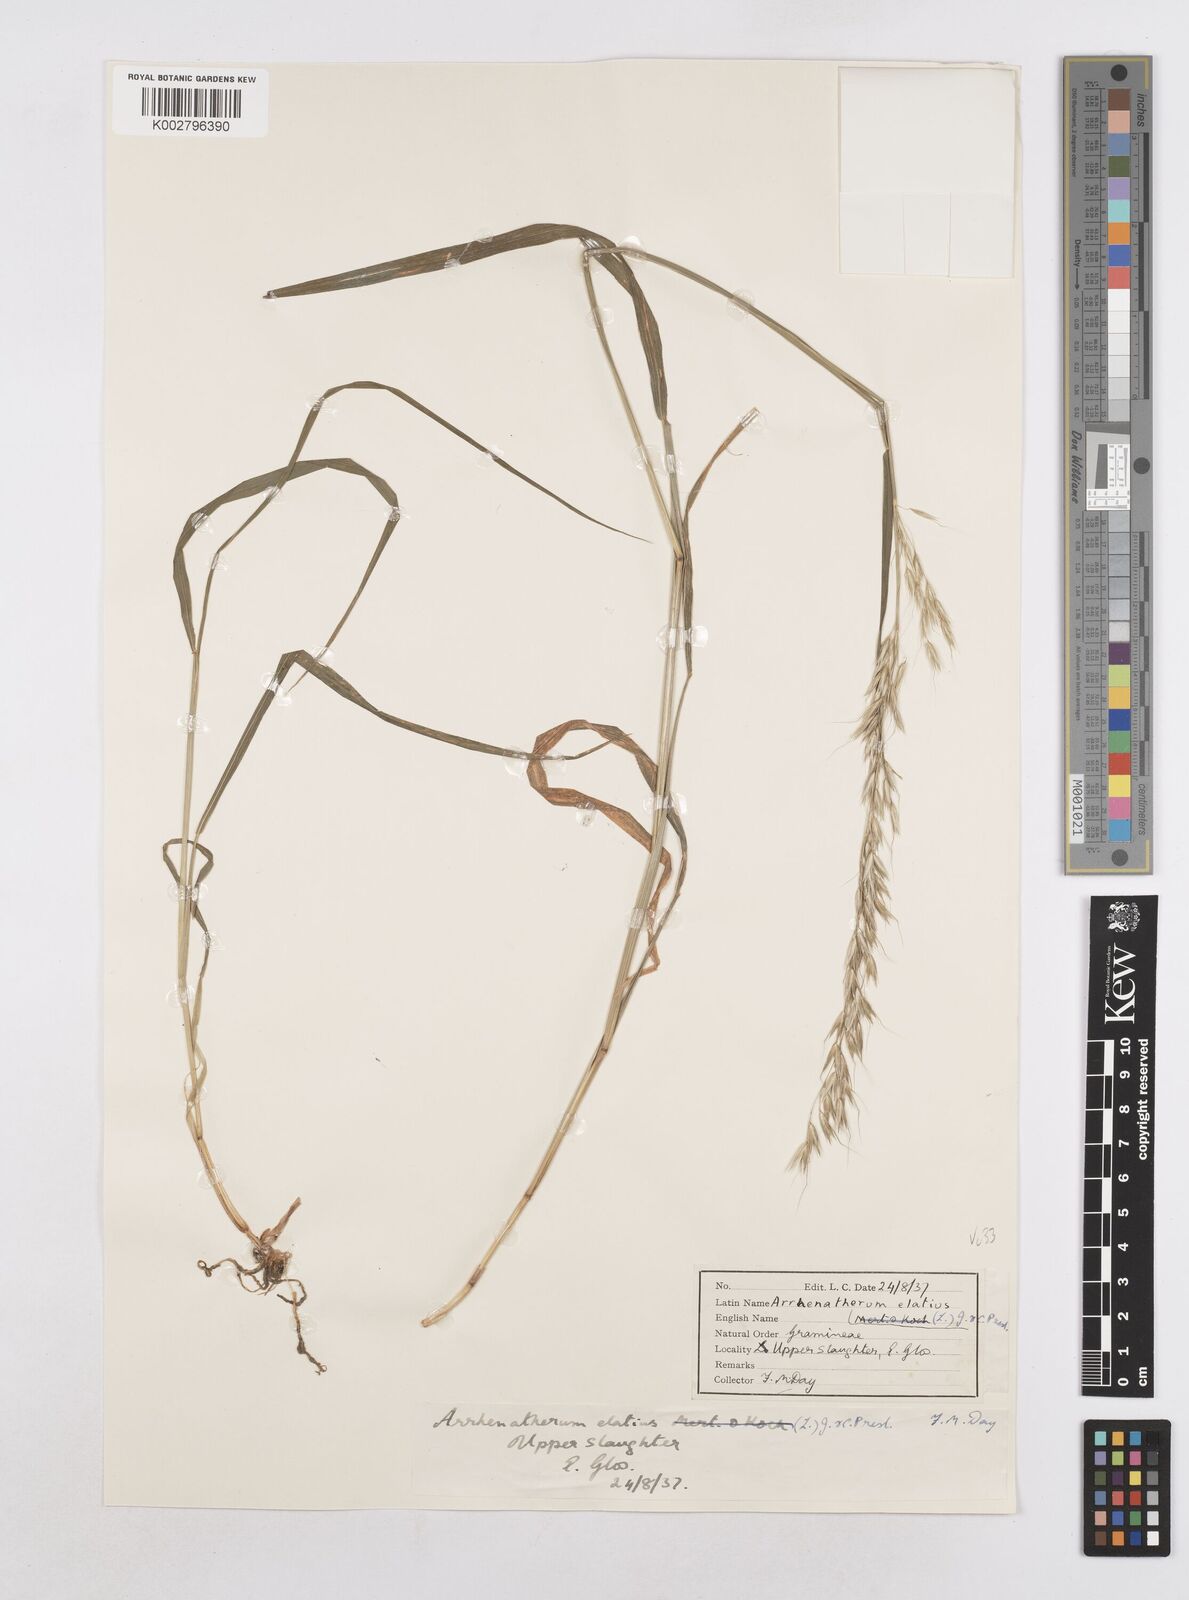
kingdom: Plantae
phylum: Tracheophyta
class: Liliopsida
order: Poales
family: Poaceae
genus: Arrhenatherum
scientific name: Arrhenatherum elatius
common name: Tall oatgrass
